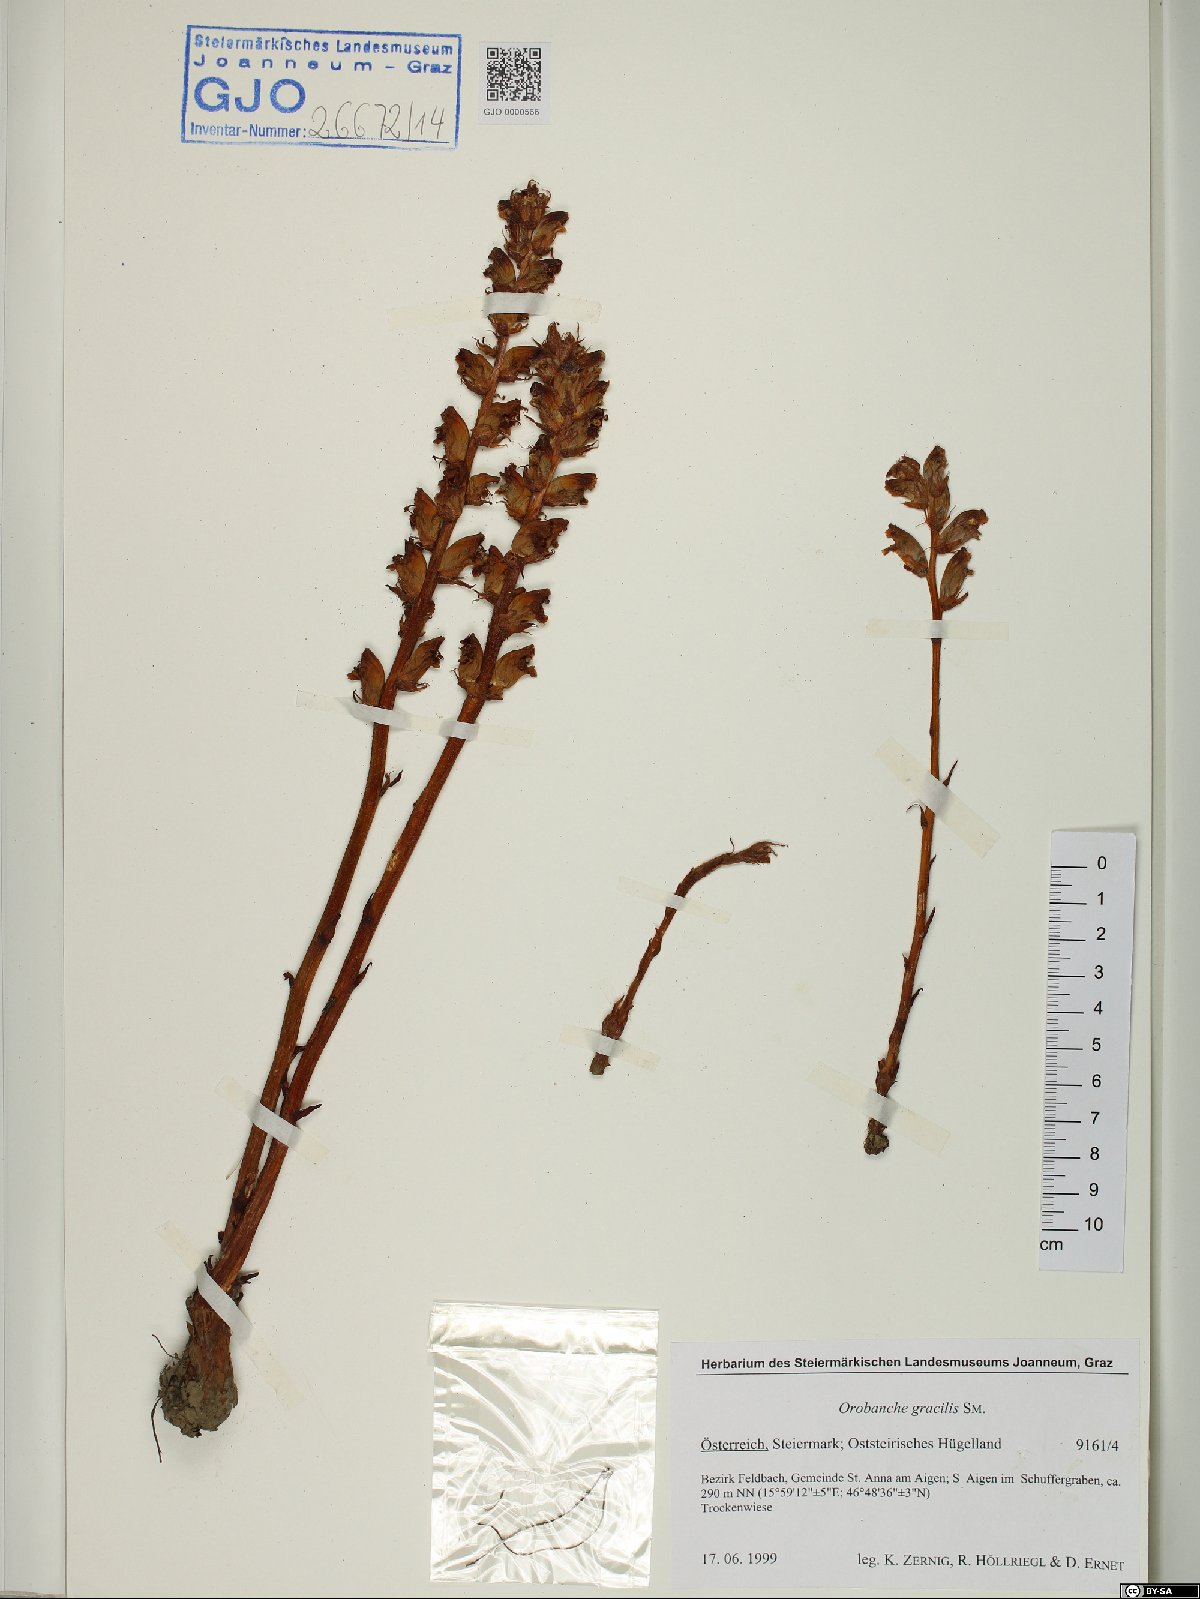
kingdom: Plantae
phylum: Tracheophyta
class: Magnoliopsida
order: Lamiales
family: Orobanchaceae
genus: Orobanche
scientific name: Orobanche gracilis
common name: Slender broomrape
